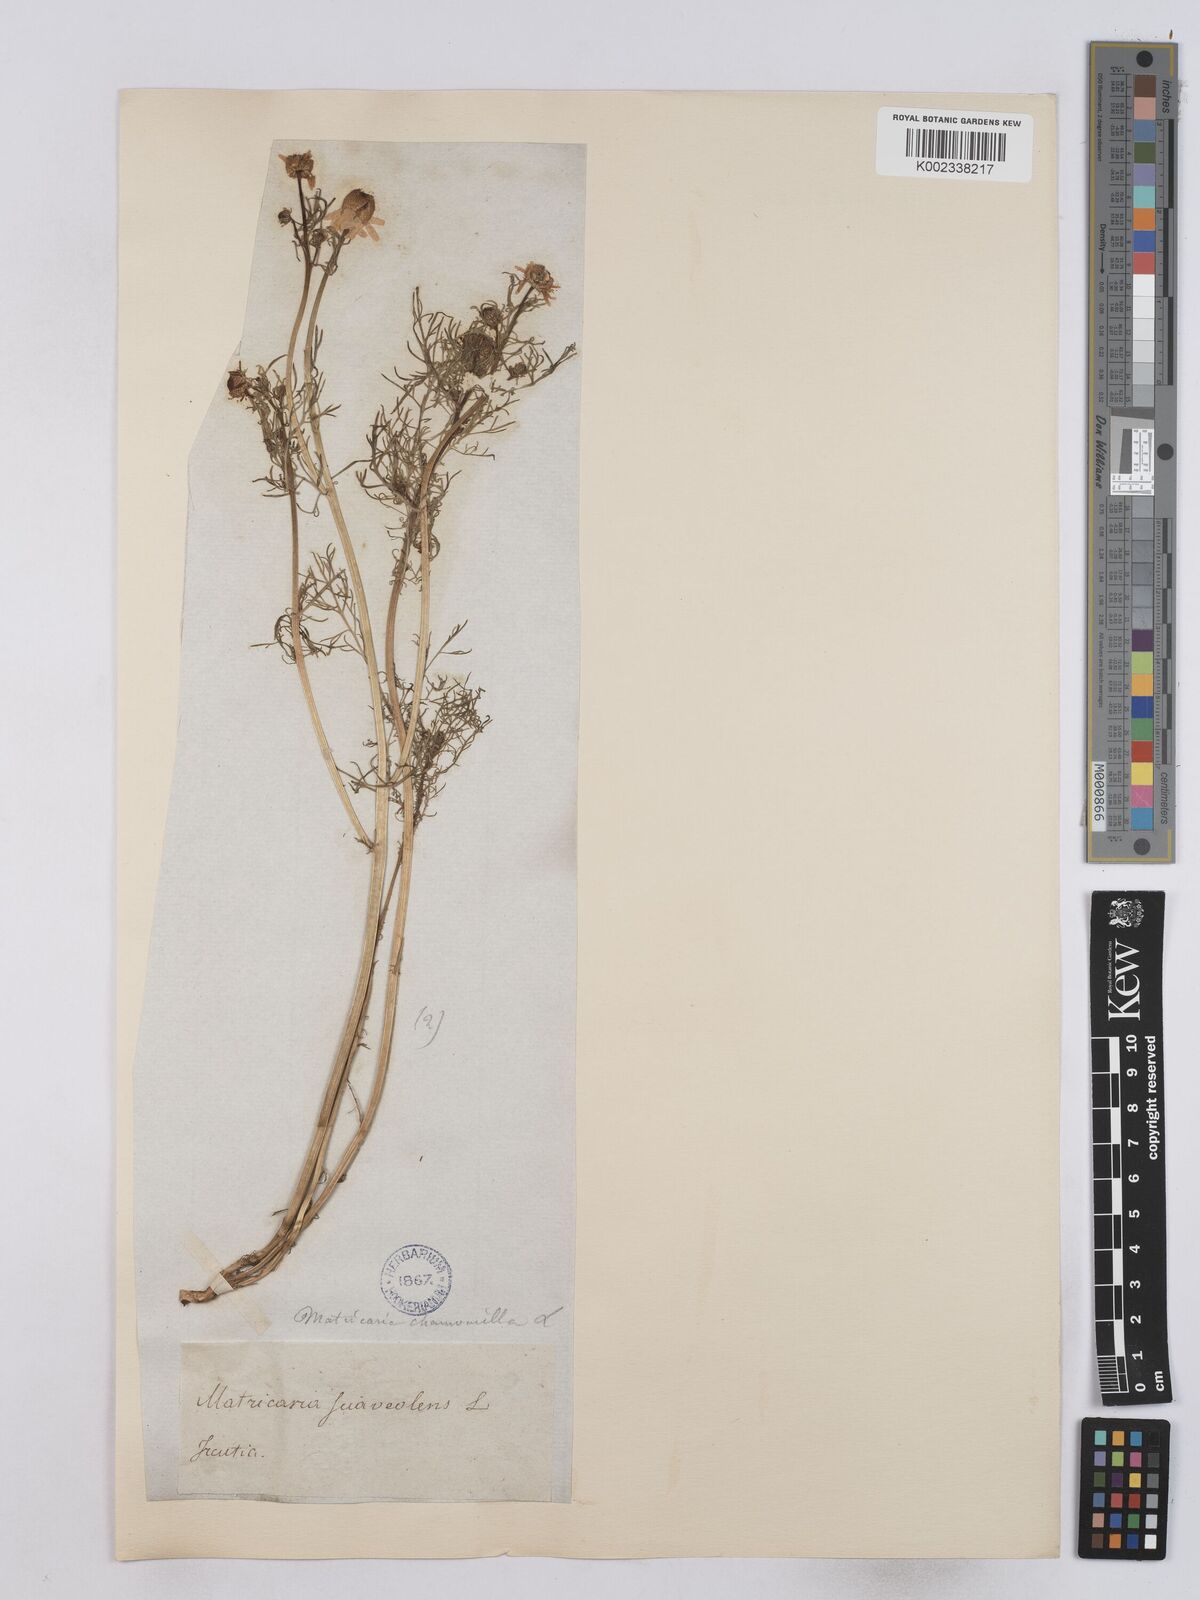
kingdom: Plantae
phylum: Tracheophyta
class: Magnoliopsida
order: Asterales
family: Asteraceae
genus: Matricaria
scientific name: Matricaria chamomilla
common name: Scented mayweed
